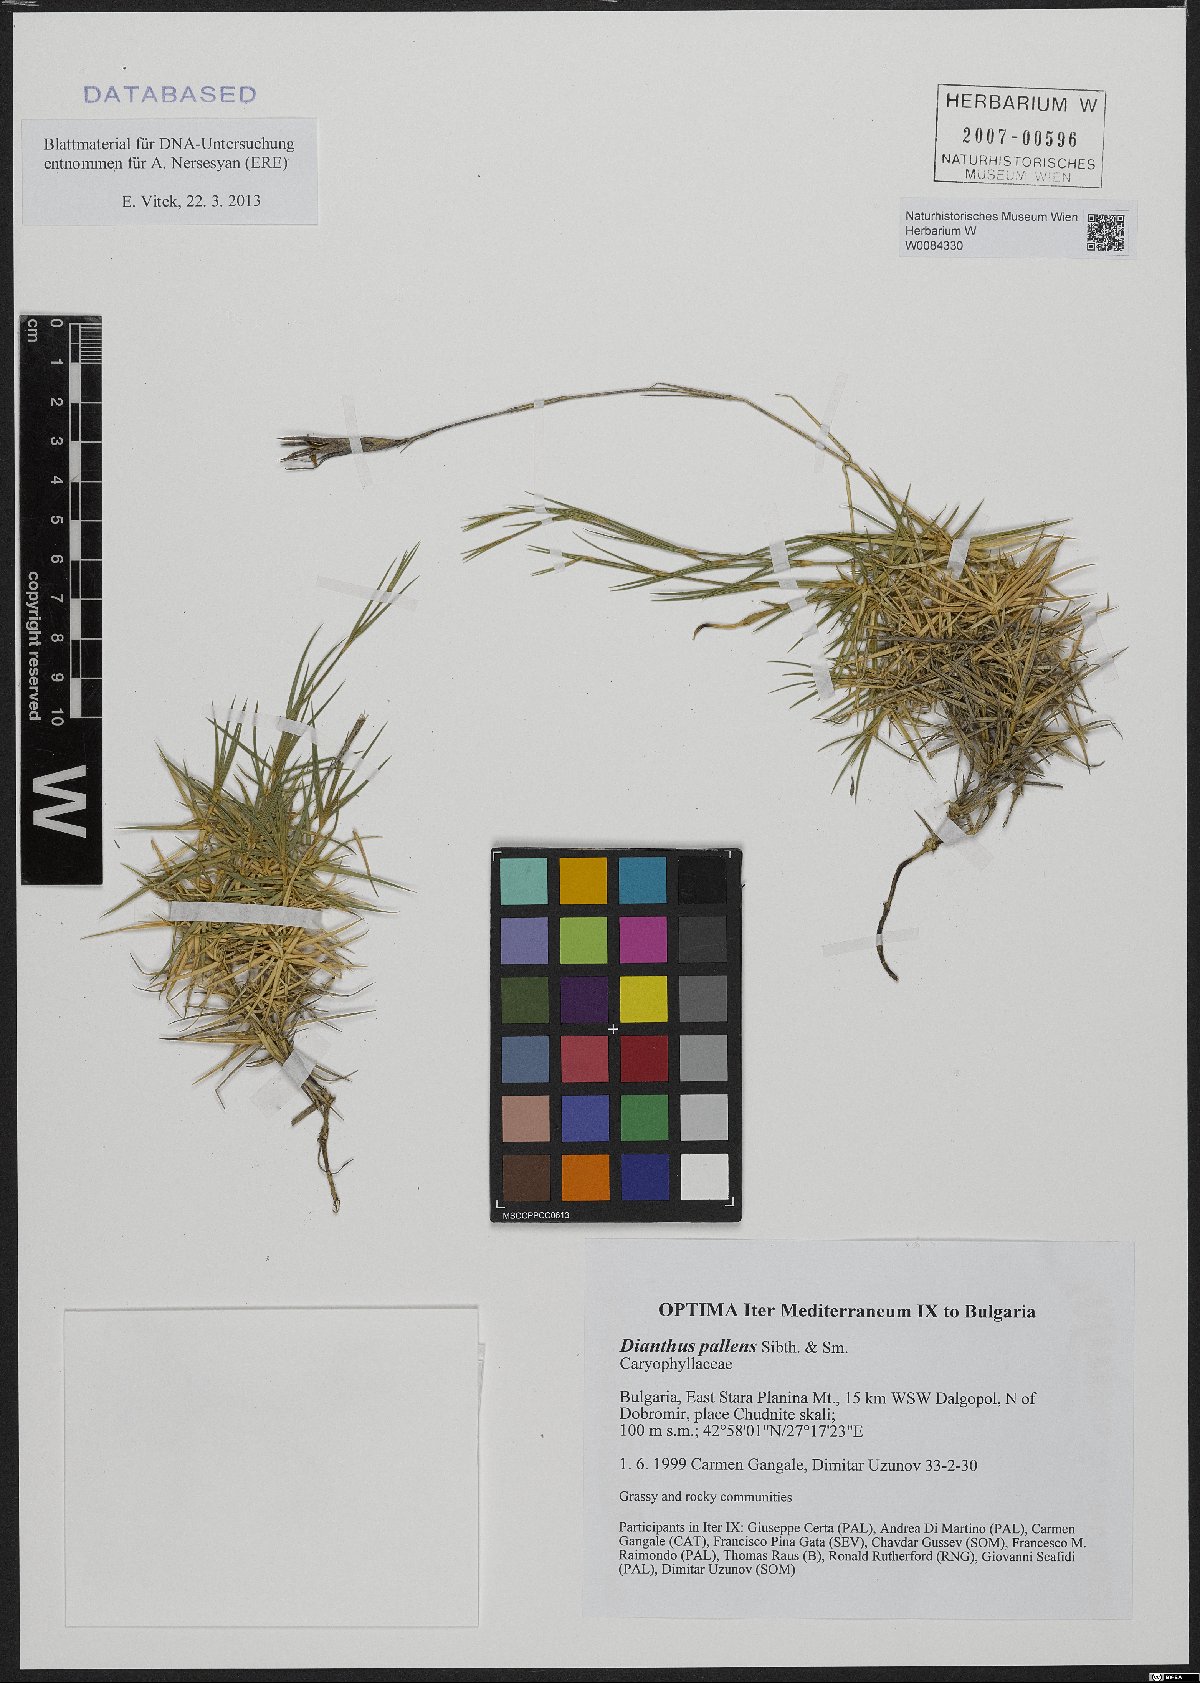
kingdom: Plantae
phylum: Tracheophyta
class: Magnoliopsida
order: Caryophyllales
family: Caryophyllaceae
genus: Dianthus
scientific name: Dianthus monadelphus
